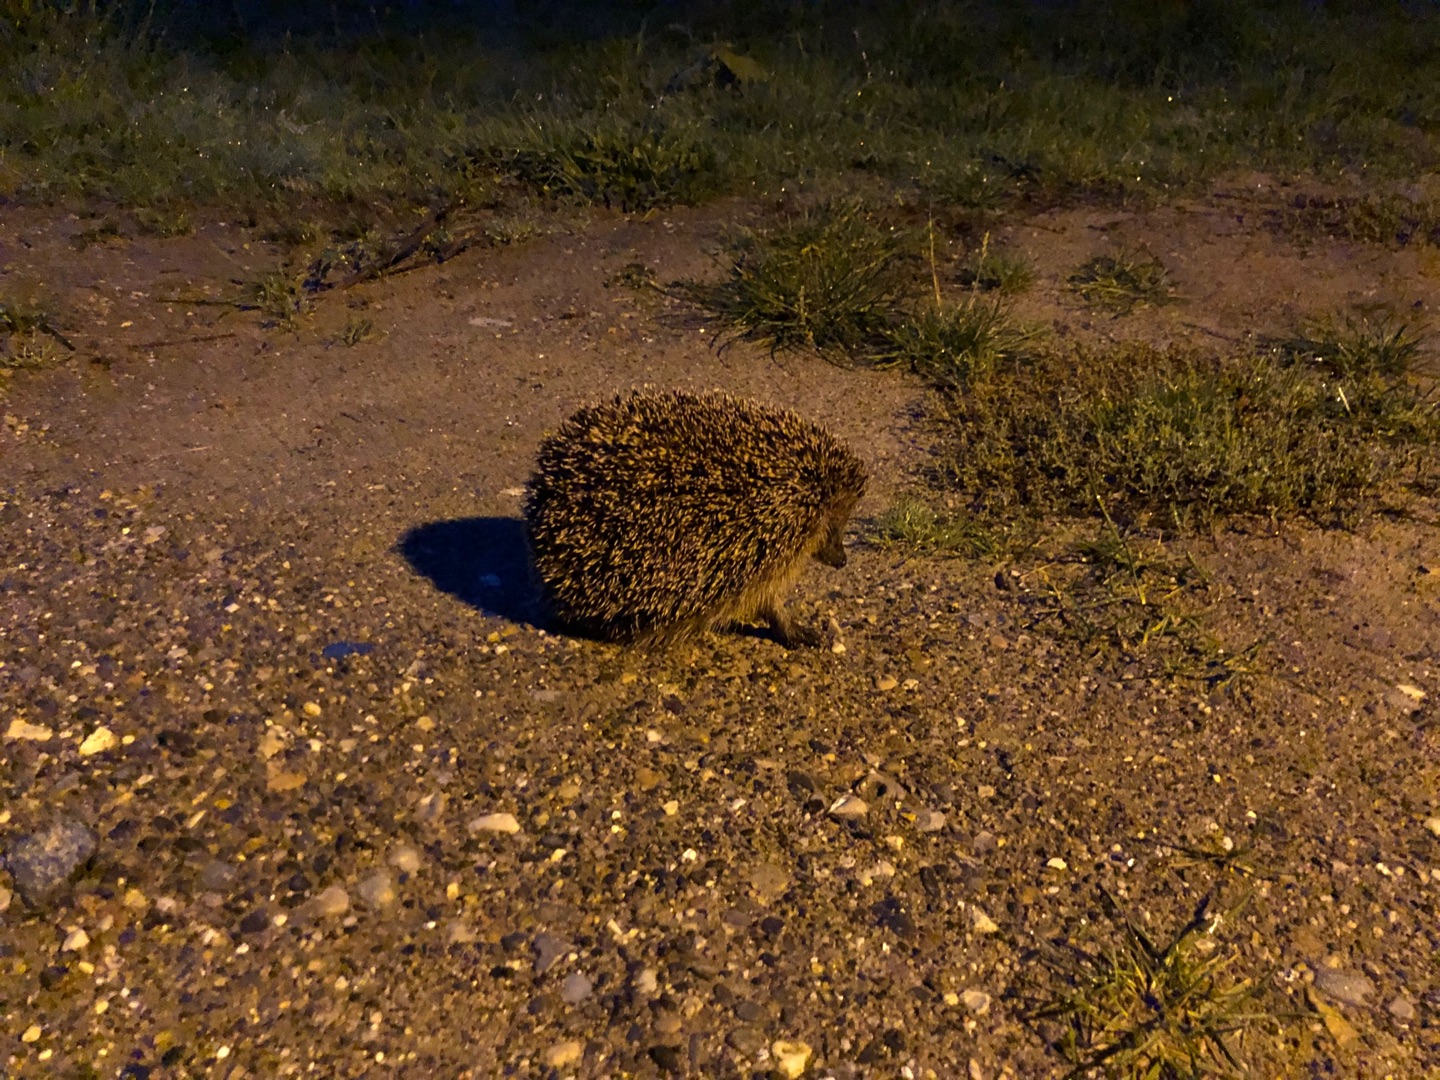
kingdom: Animalia
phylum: Chordata
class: Mammalia
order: Erinaceomorpha
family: Erinaceidae
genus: Erinaceus
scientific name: Erinaceus europaeus
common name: Pindsvin
